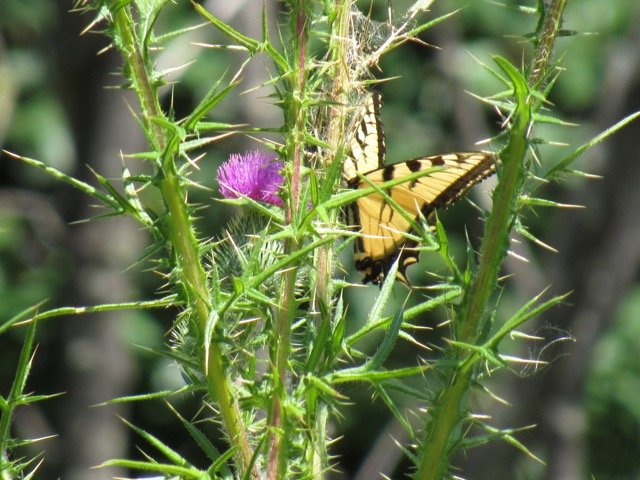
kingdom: Animalia
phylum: Arthropoda
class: Insecta
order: Lepidoptera
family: Papilionidae
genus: Pterourus
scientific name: Pterourus glaucus
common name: Eastern Tiger Swallowtail
